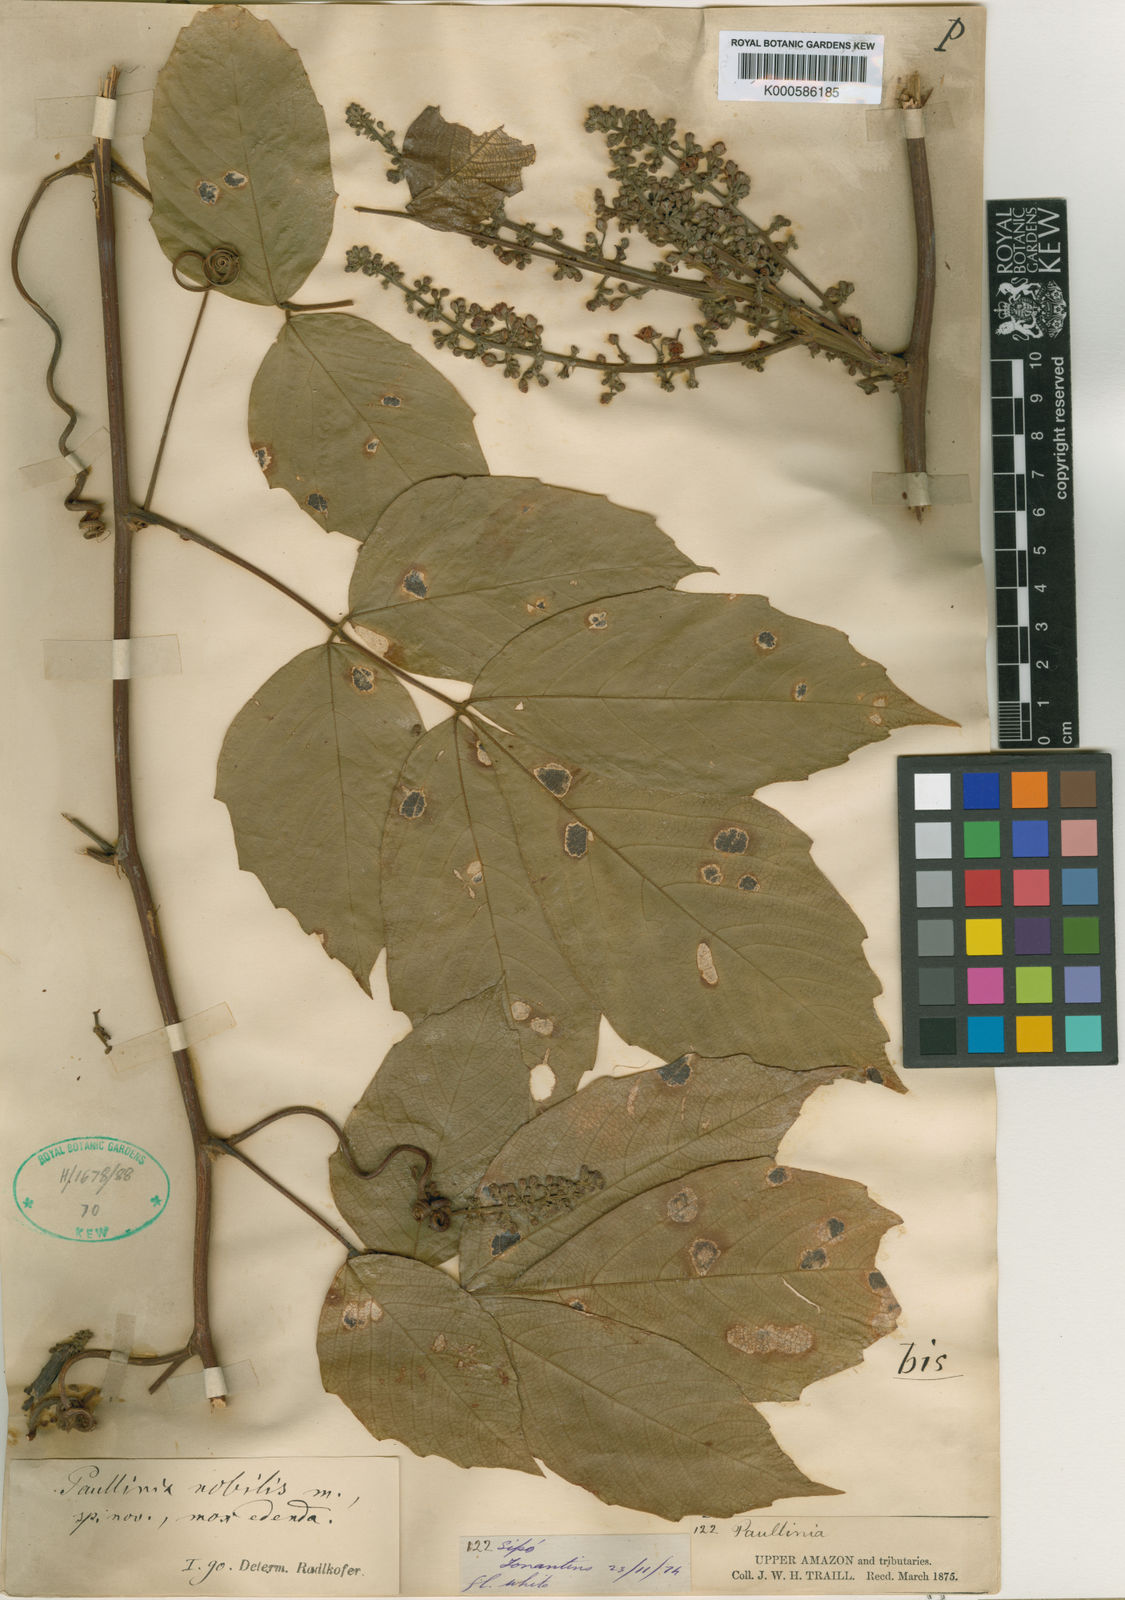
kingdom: Plantae
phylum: Tracheophyta
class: Magnoliopsida
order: Sapindales
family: Sapindaceae
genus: Paullinia
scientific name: Paullinia nobilis
